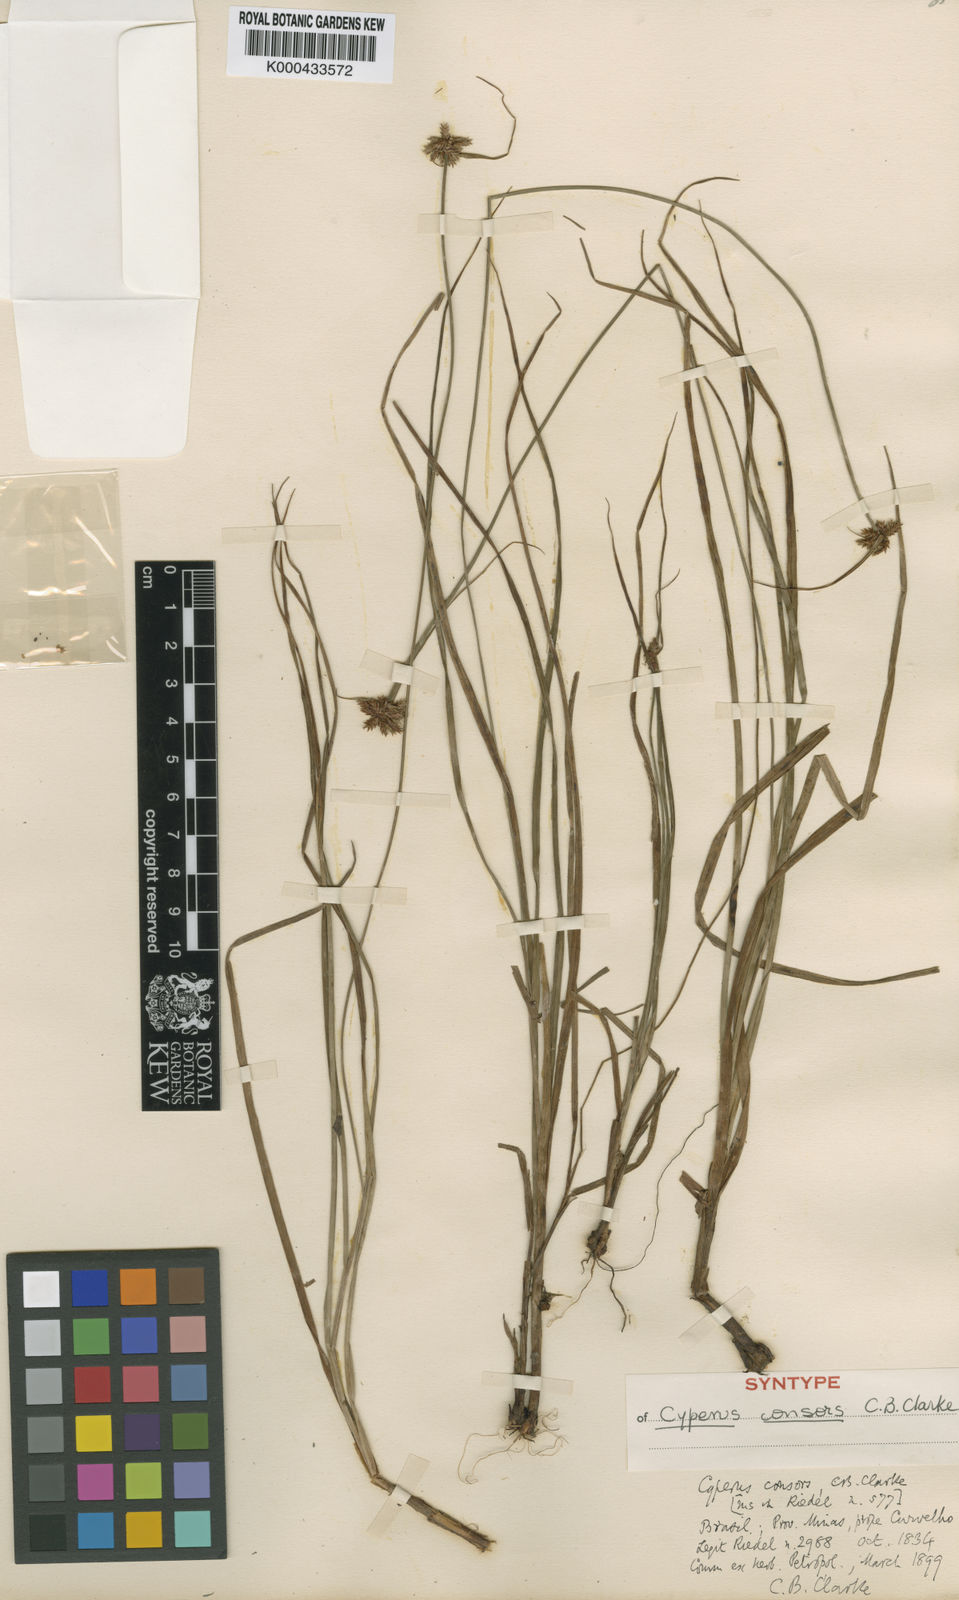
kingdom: Plantae
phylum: Tracheophyta
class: Liliopsida
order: Poales
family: Cyperaceae
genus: Cyperus
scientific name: Cyperus
